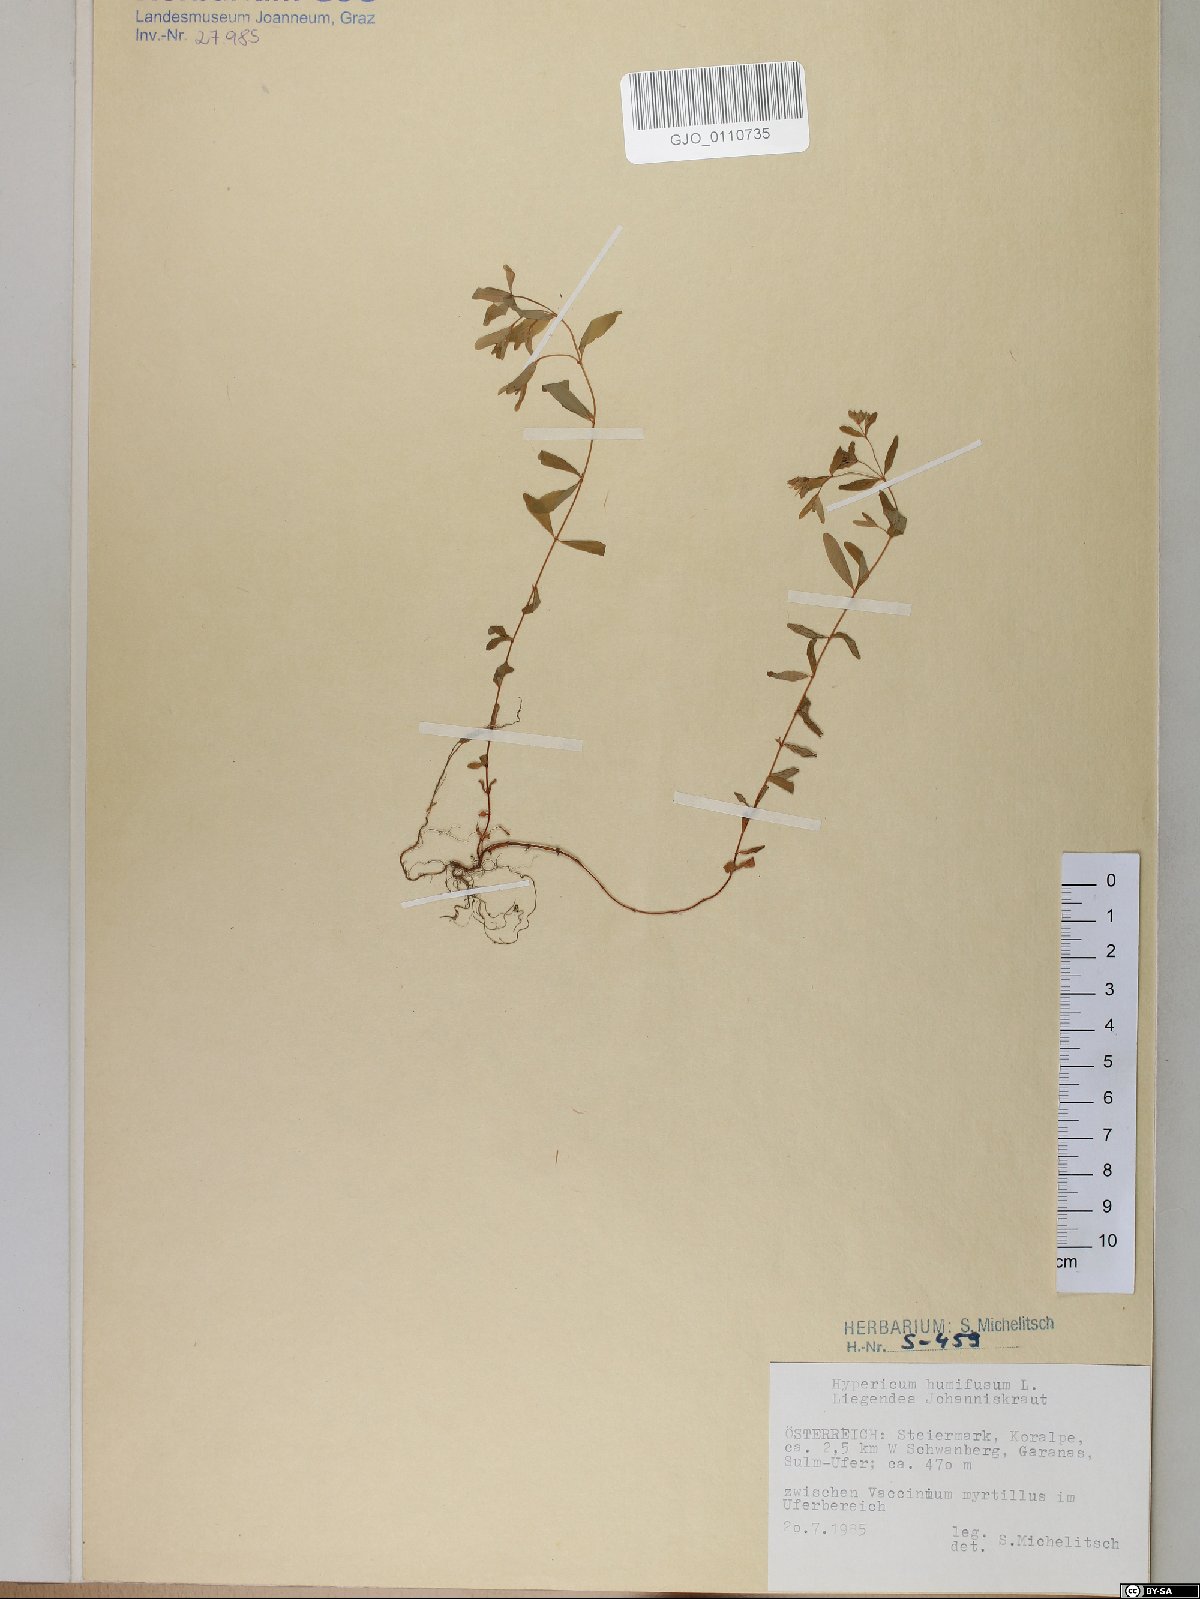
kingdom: Plantae
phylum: Tracheophyta
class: Magnoliopsida
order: Malpighiales
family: Hypericaceae
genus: Hypericum
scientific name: Hypericum humifusum
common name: Trailing st. john's-wort
